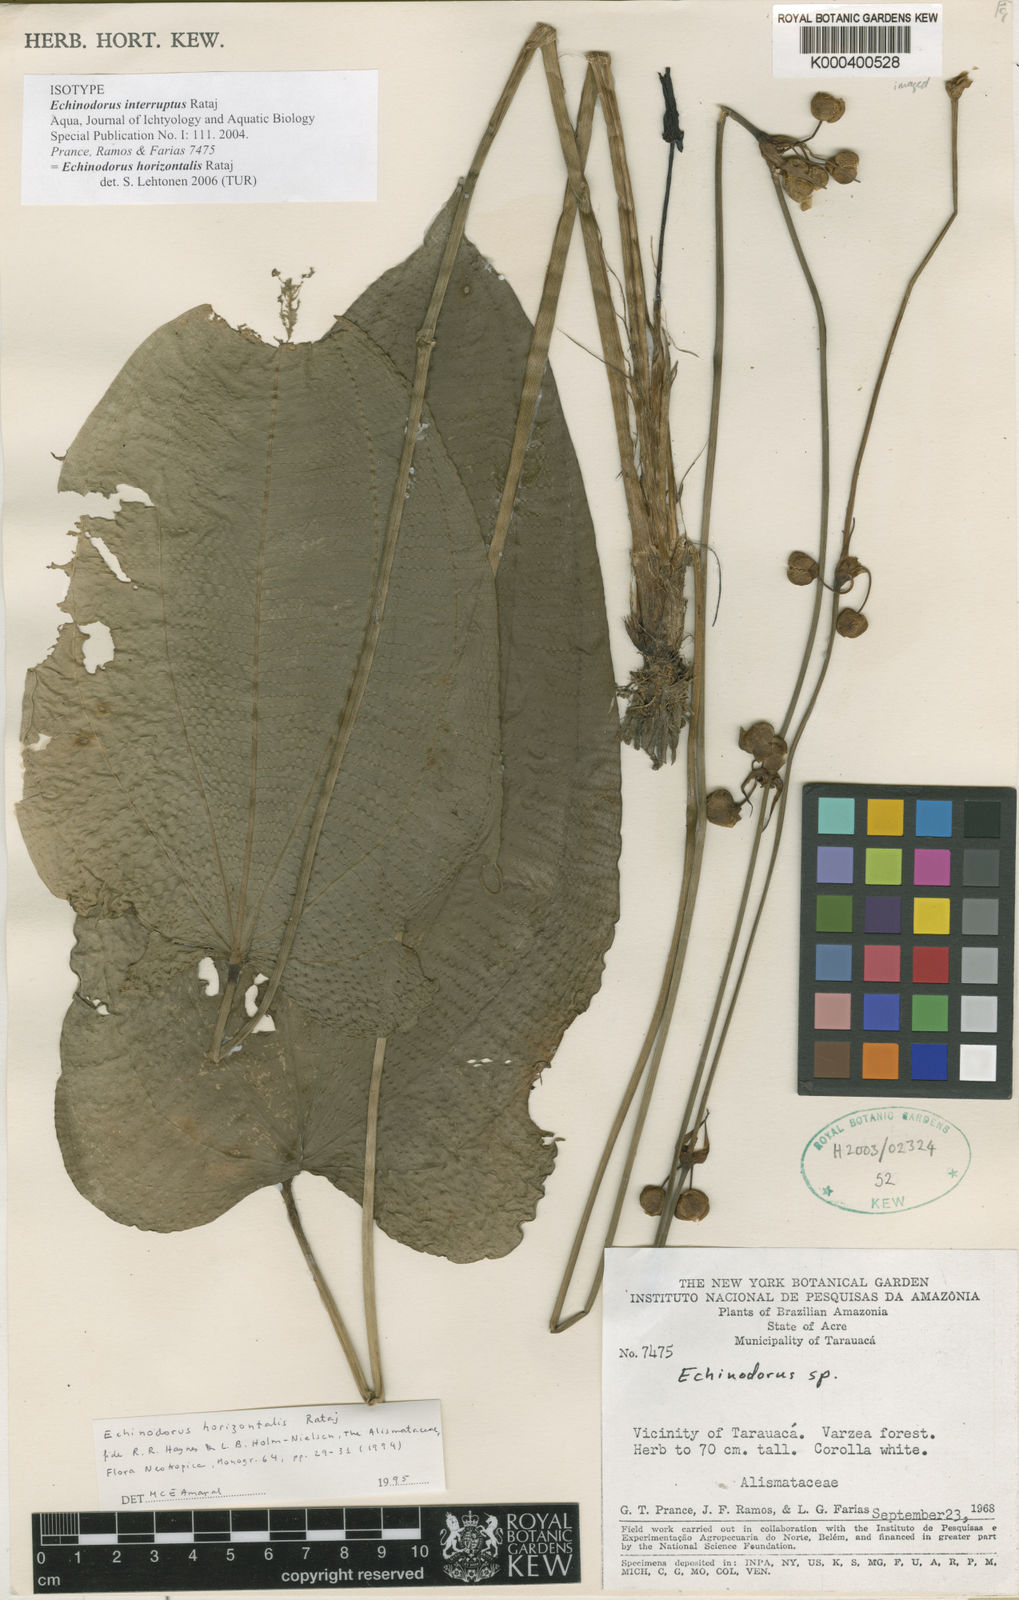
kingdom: Plantae
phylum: Tracheophyta
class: Liliopsida
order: Alismatales
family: Alismataceae
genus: Echinodorus
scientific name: Echinodorus
